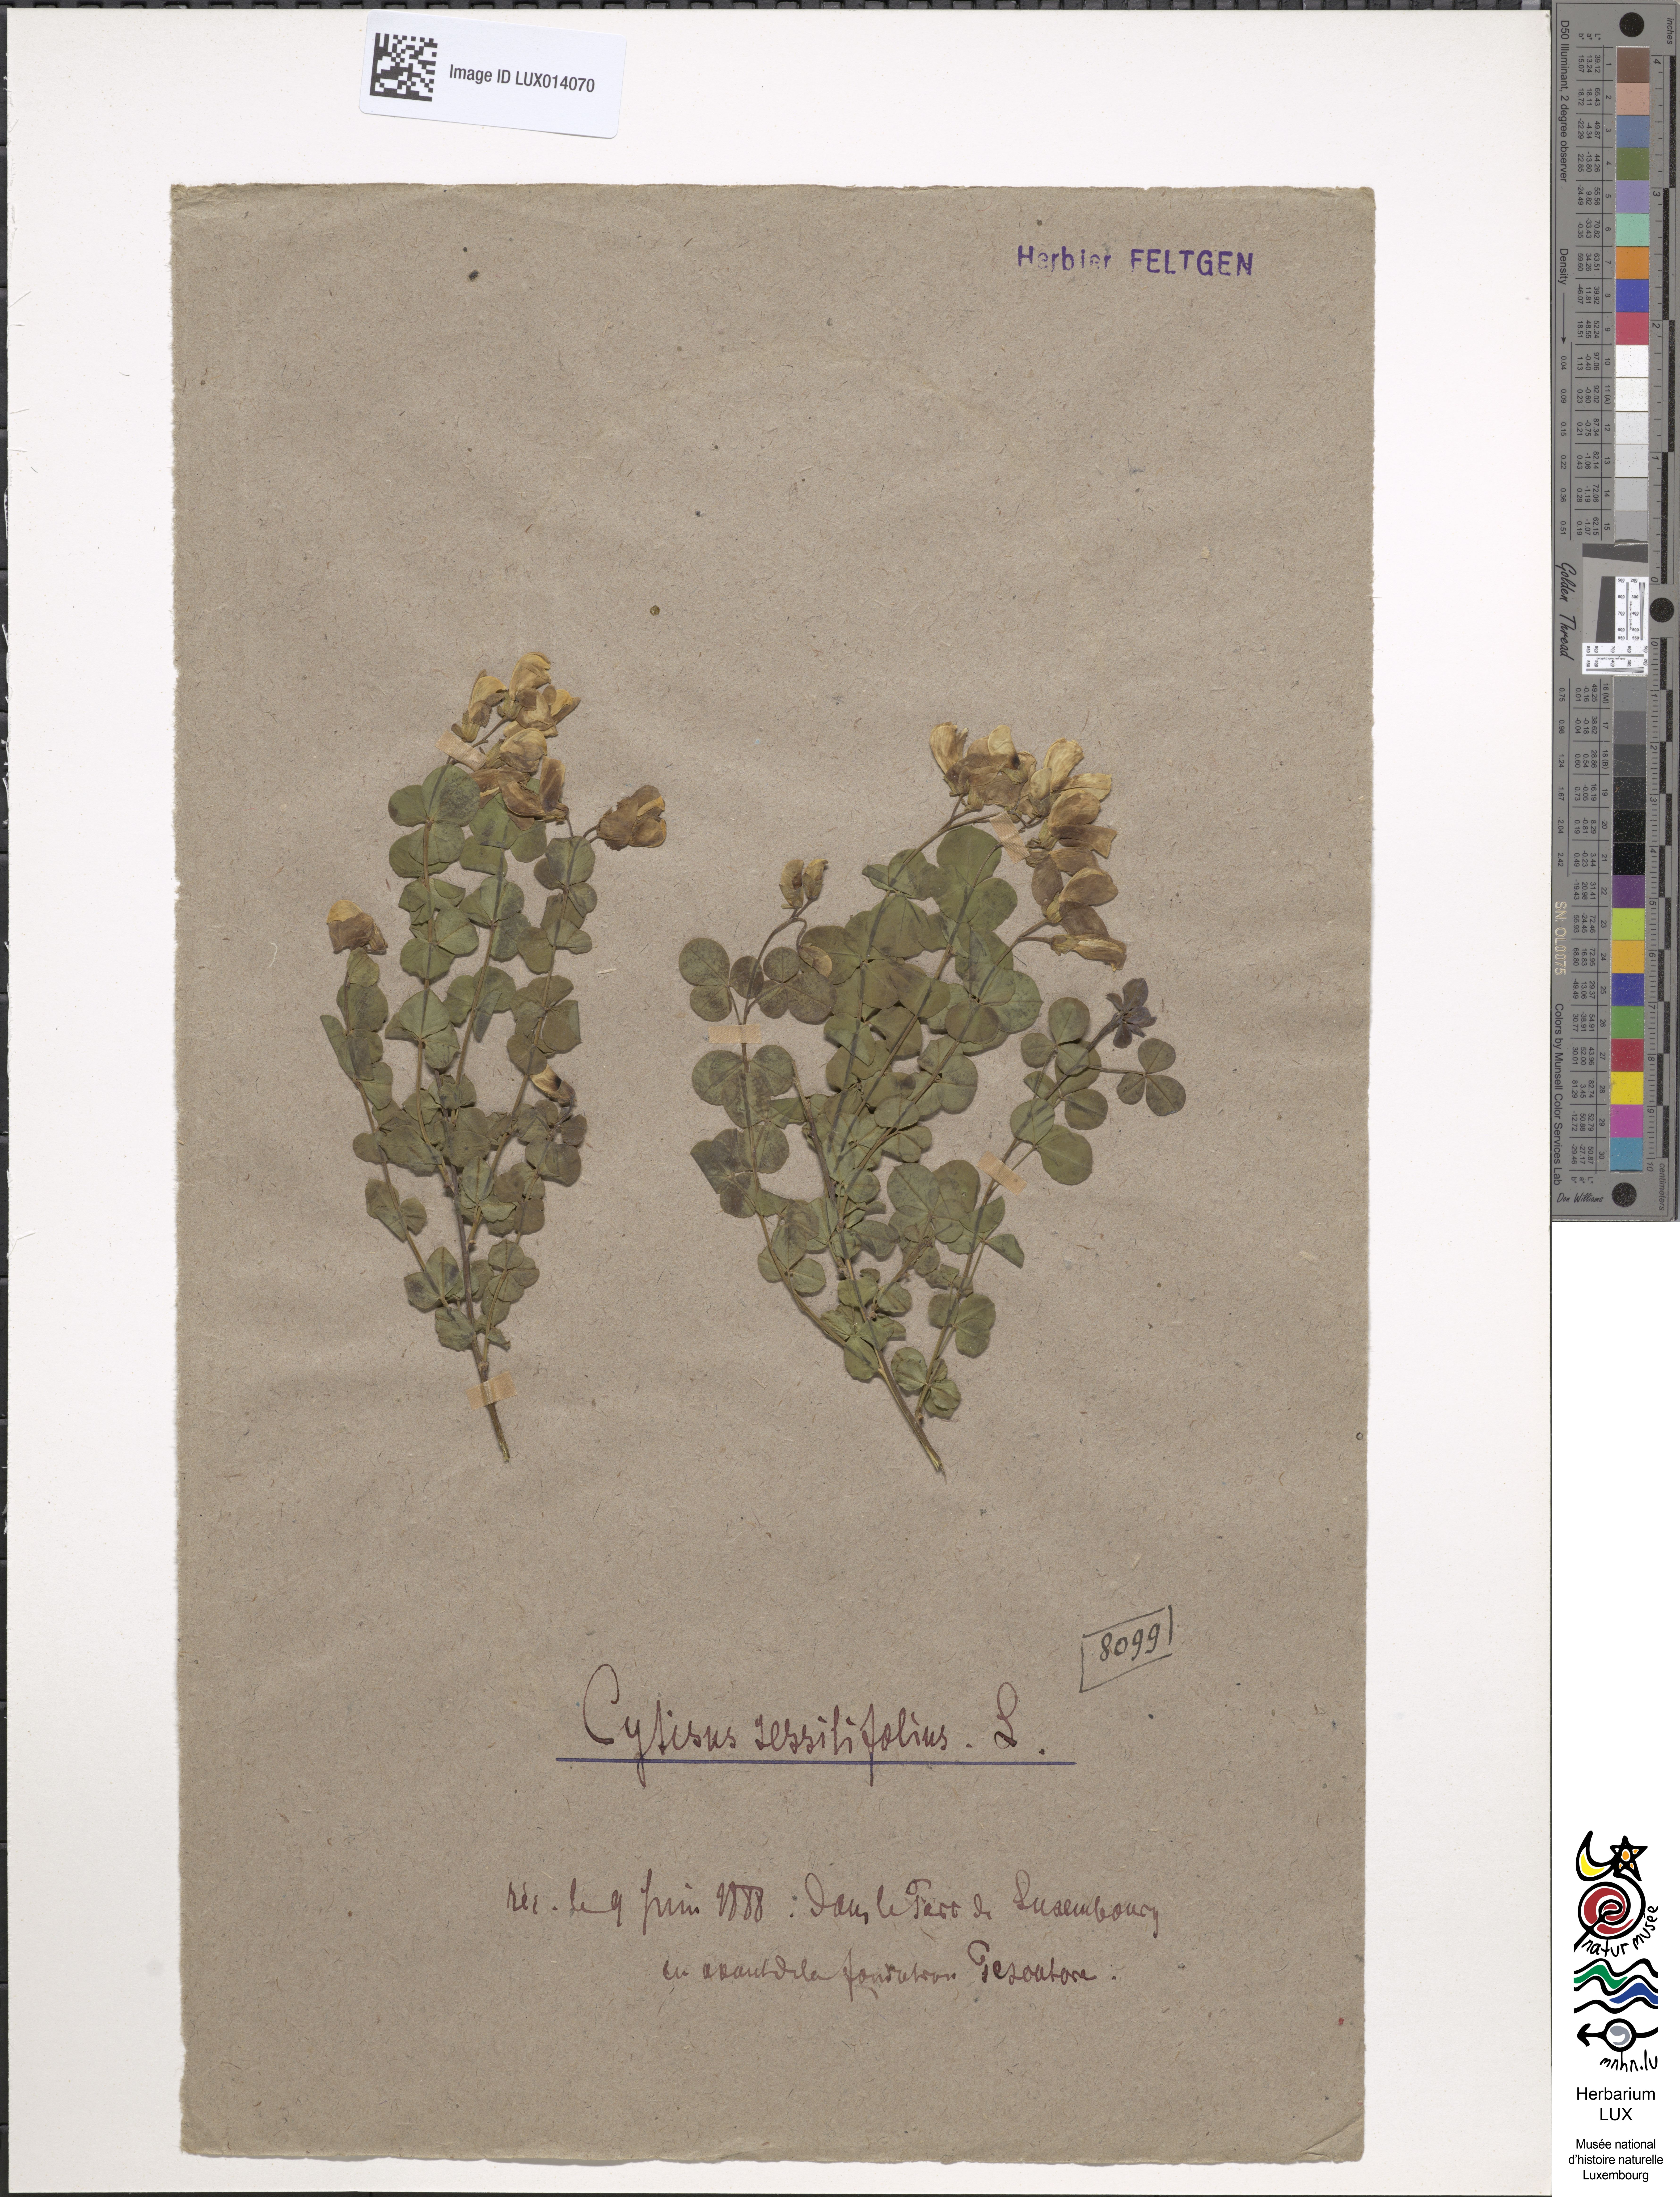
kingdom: Plantae
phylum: Tracheophyta
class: Magnoliopsida
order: Fabales
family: Fabaceae
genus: Cytisophyllum
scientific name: Cytisophyllum sessilifolium
